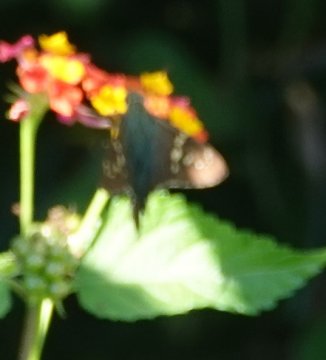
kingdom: Animalia
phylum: Arthropoda
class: Insecta
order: Lepidoptera
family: Hesperiidae
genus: Urbanus
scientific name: Urbanus proteus
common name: Long-tailed Skipper
